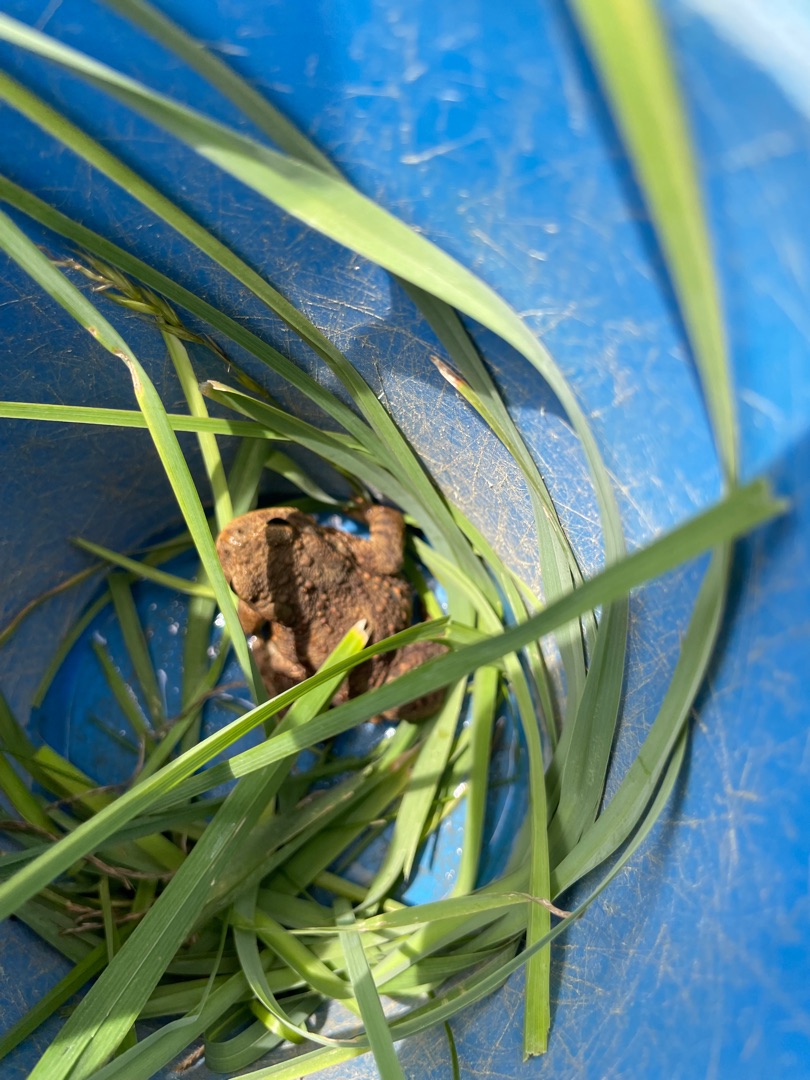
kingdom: Animalia
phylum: Chordata
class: Amphibia
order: Anura
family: Bufonidae
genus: Bufo
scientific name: Bufo bufo
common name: Skrubtudse
